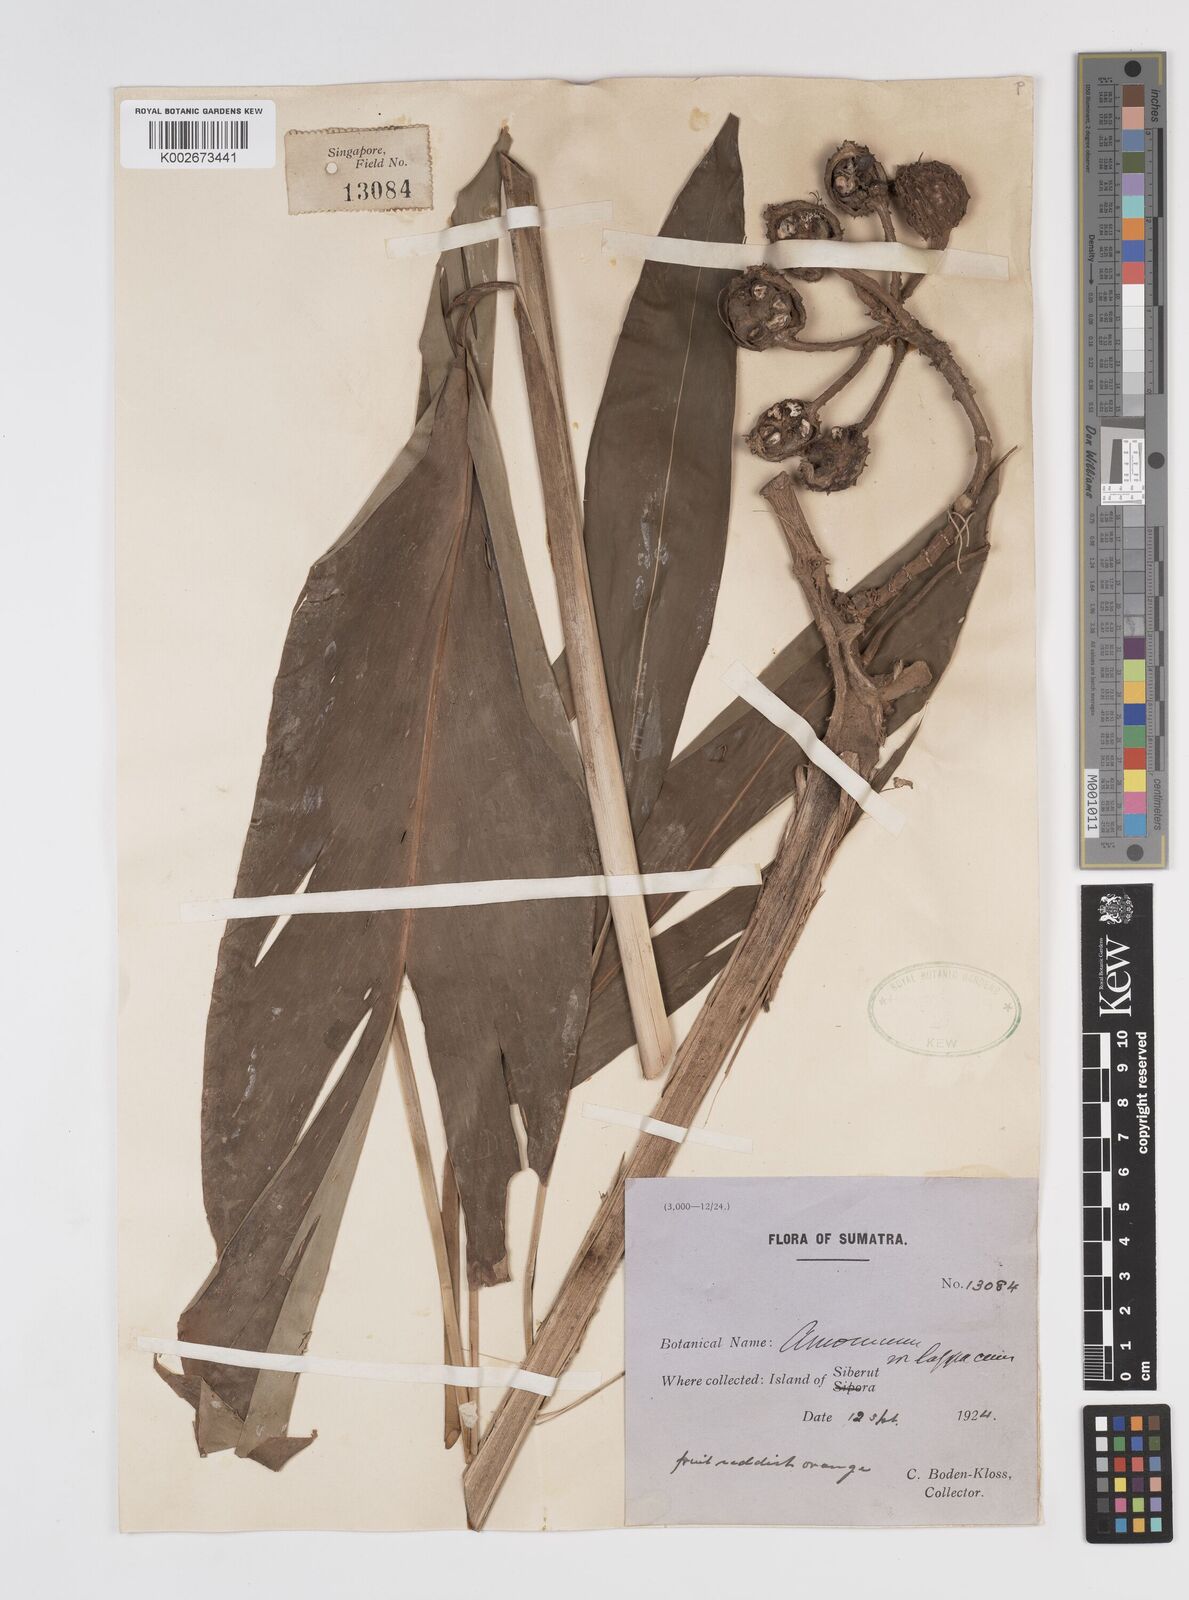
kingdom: Plantae
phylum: Tracheophyta
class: Liliopsida
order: Zingiberales
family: Zingiberaceae
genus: Meistera
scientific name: Meistera lappacea
